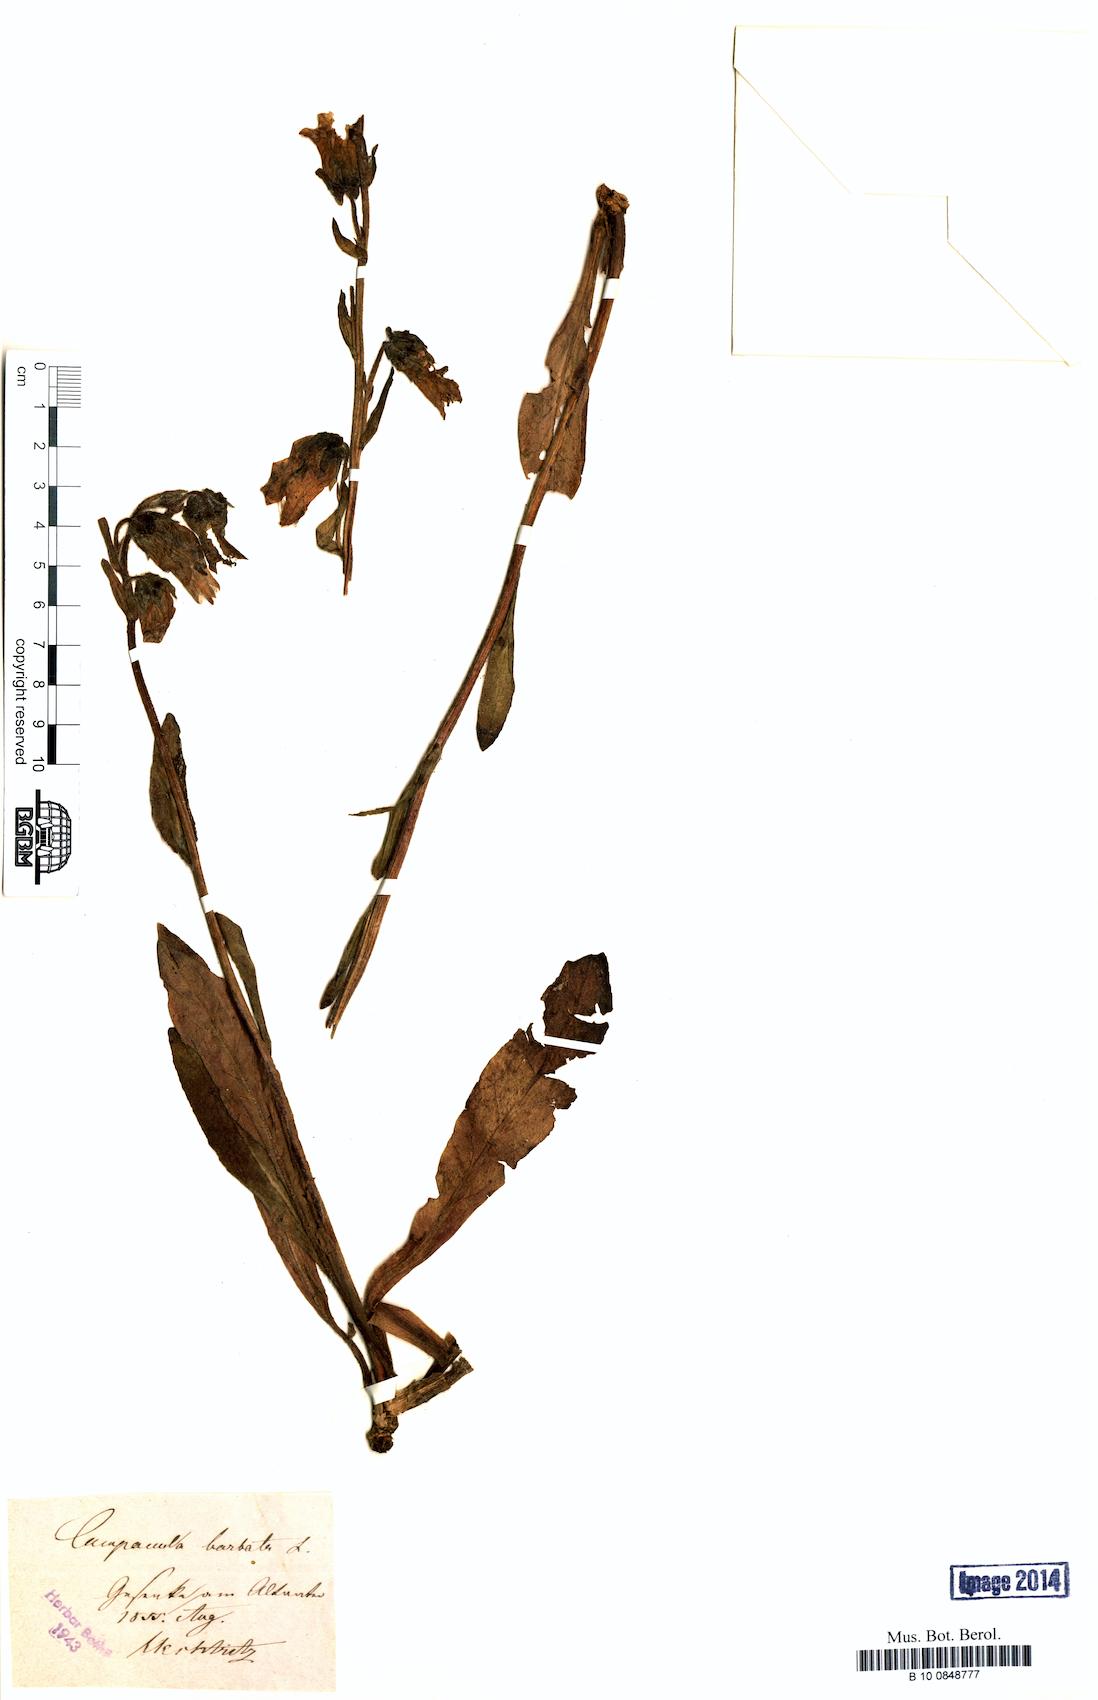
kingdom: Plantae
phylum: Tracheophyta
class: Magnoliopsida
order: Asterales
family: Campanulaceae
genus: Campanula
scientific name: Campanula barbata
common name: Bearded bellflower
